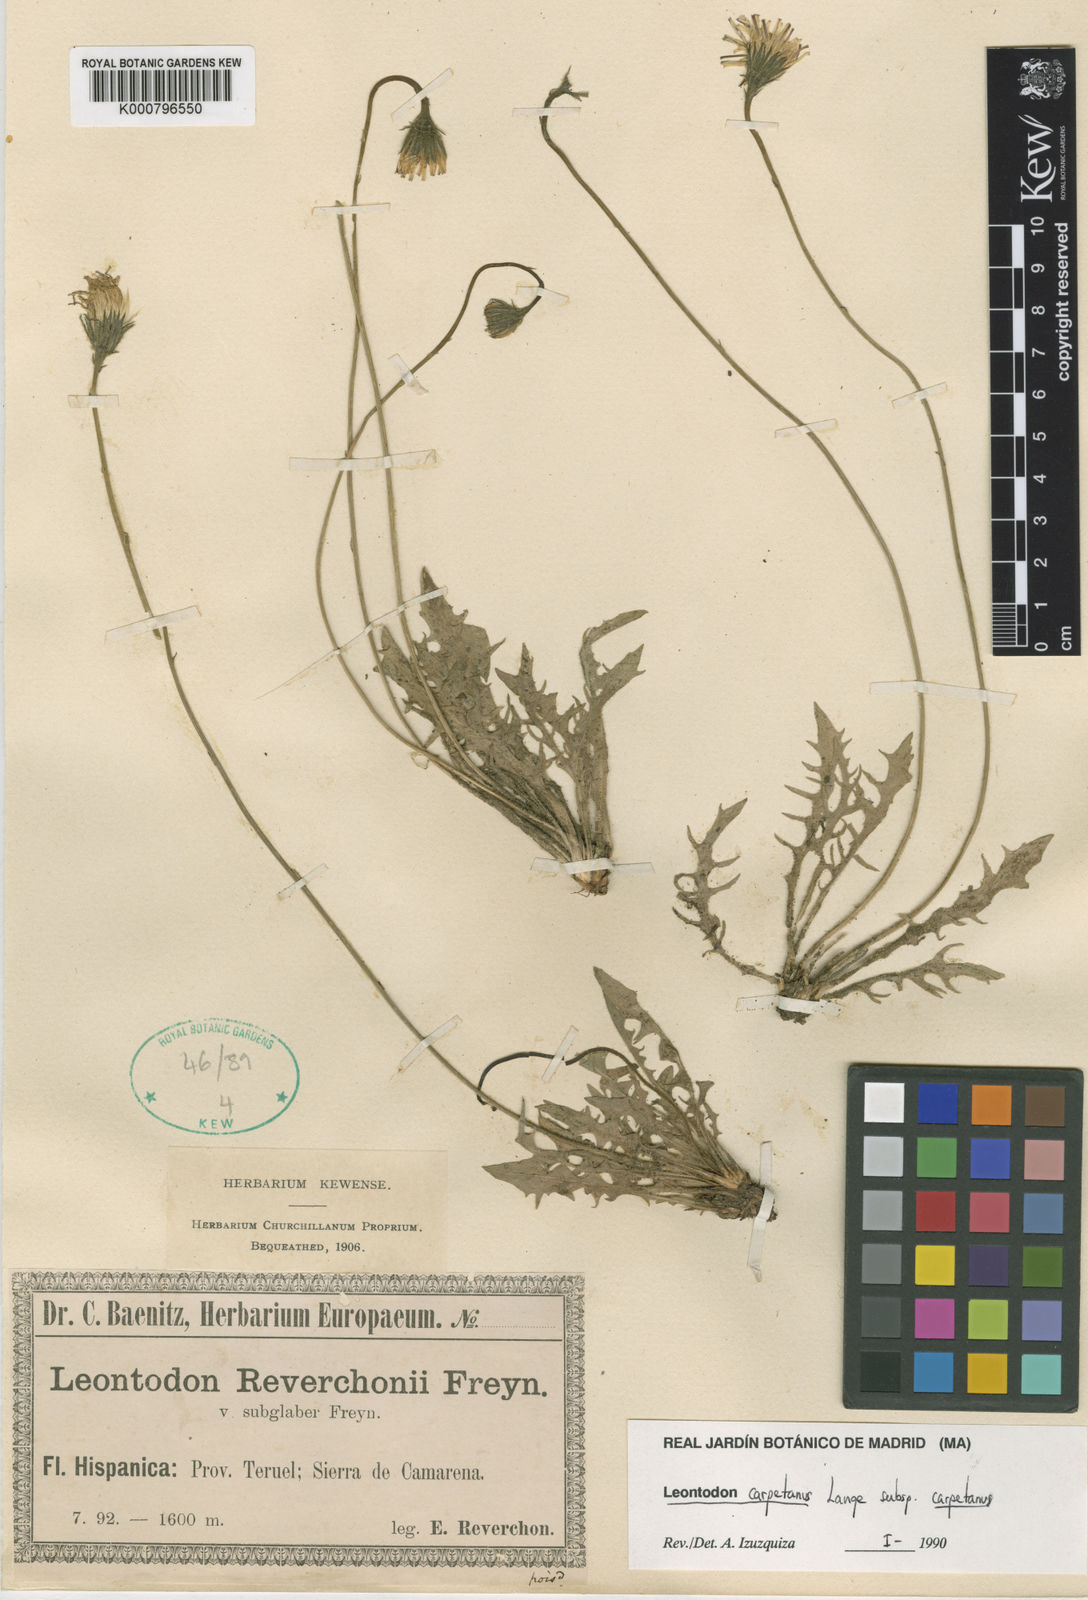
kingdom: Plantae
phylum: Tracheophyta
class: Magnoliopsida
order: Asterales
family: Asteraceae
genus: Leontodon
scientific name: Leontodon
